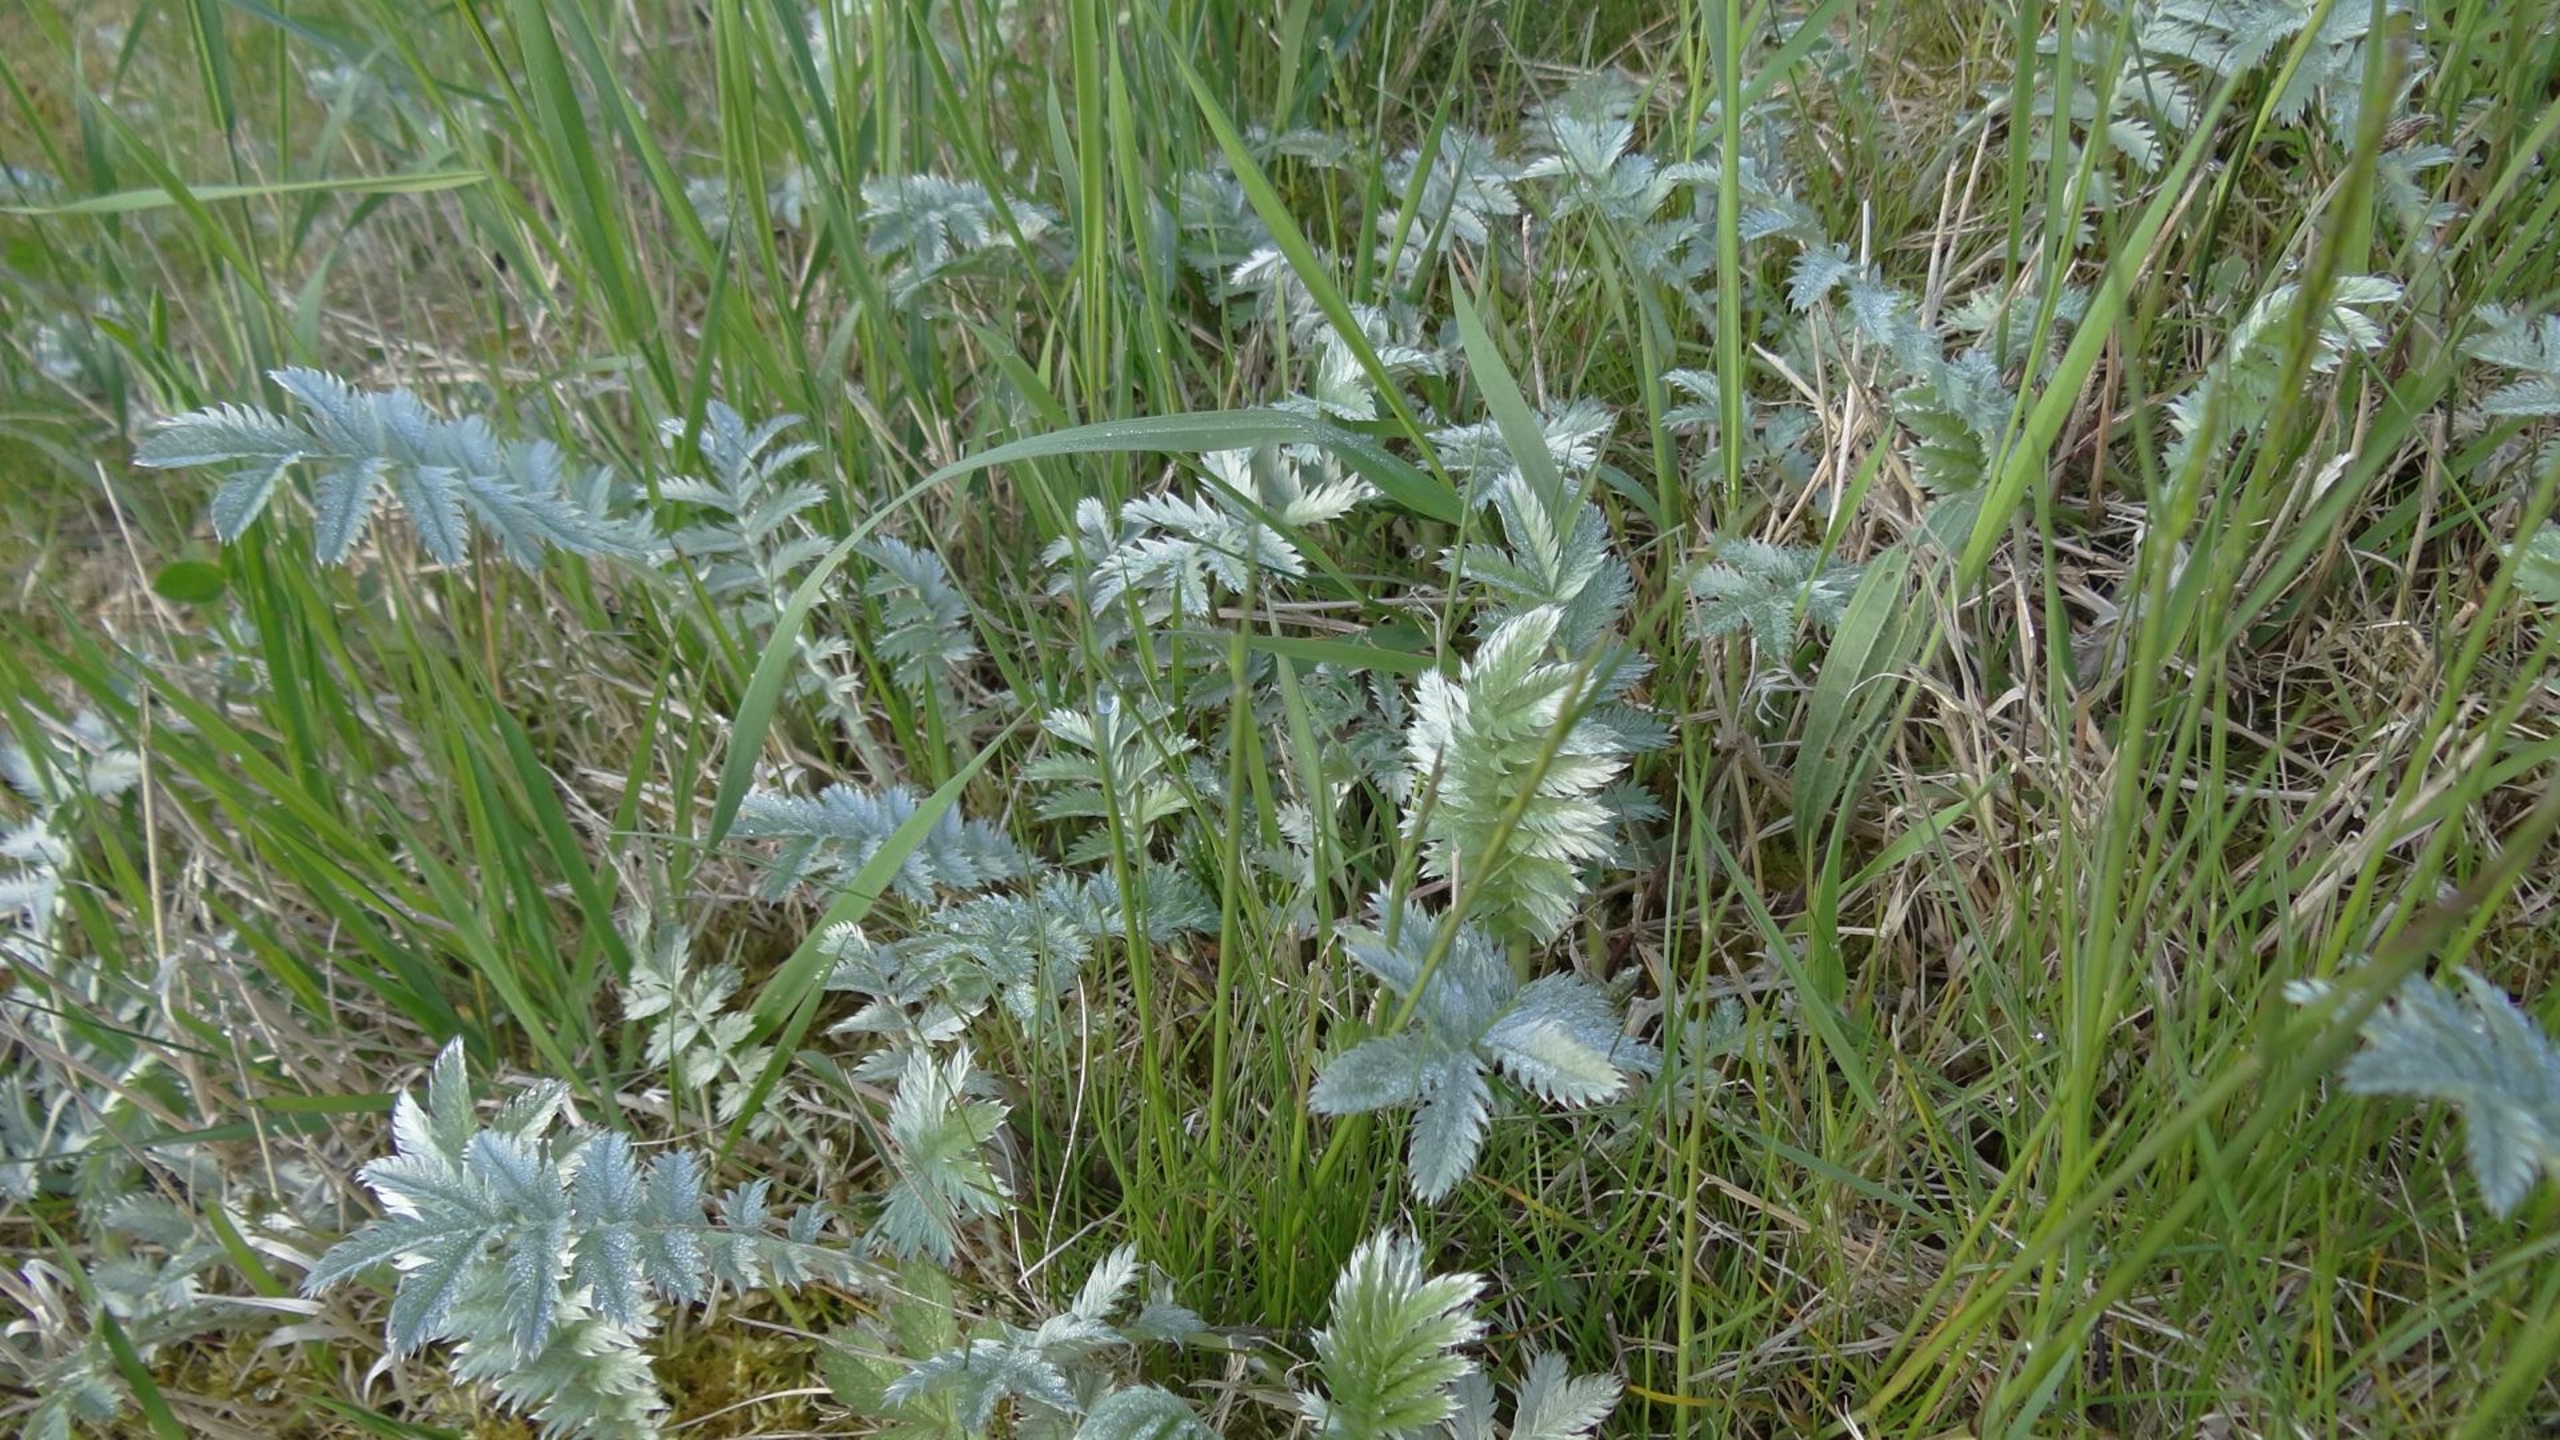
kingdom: Plantae
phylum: Tracheophyta
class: Magnoliopsida
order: Rosales
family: Rosaceae
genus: Argentina
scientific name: Argentina anserina
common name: Gåsepotentil
